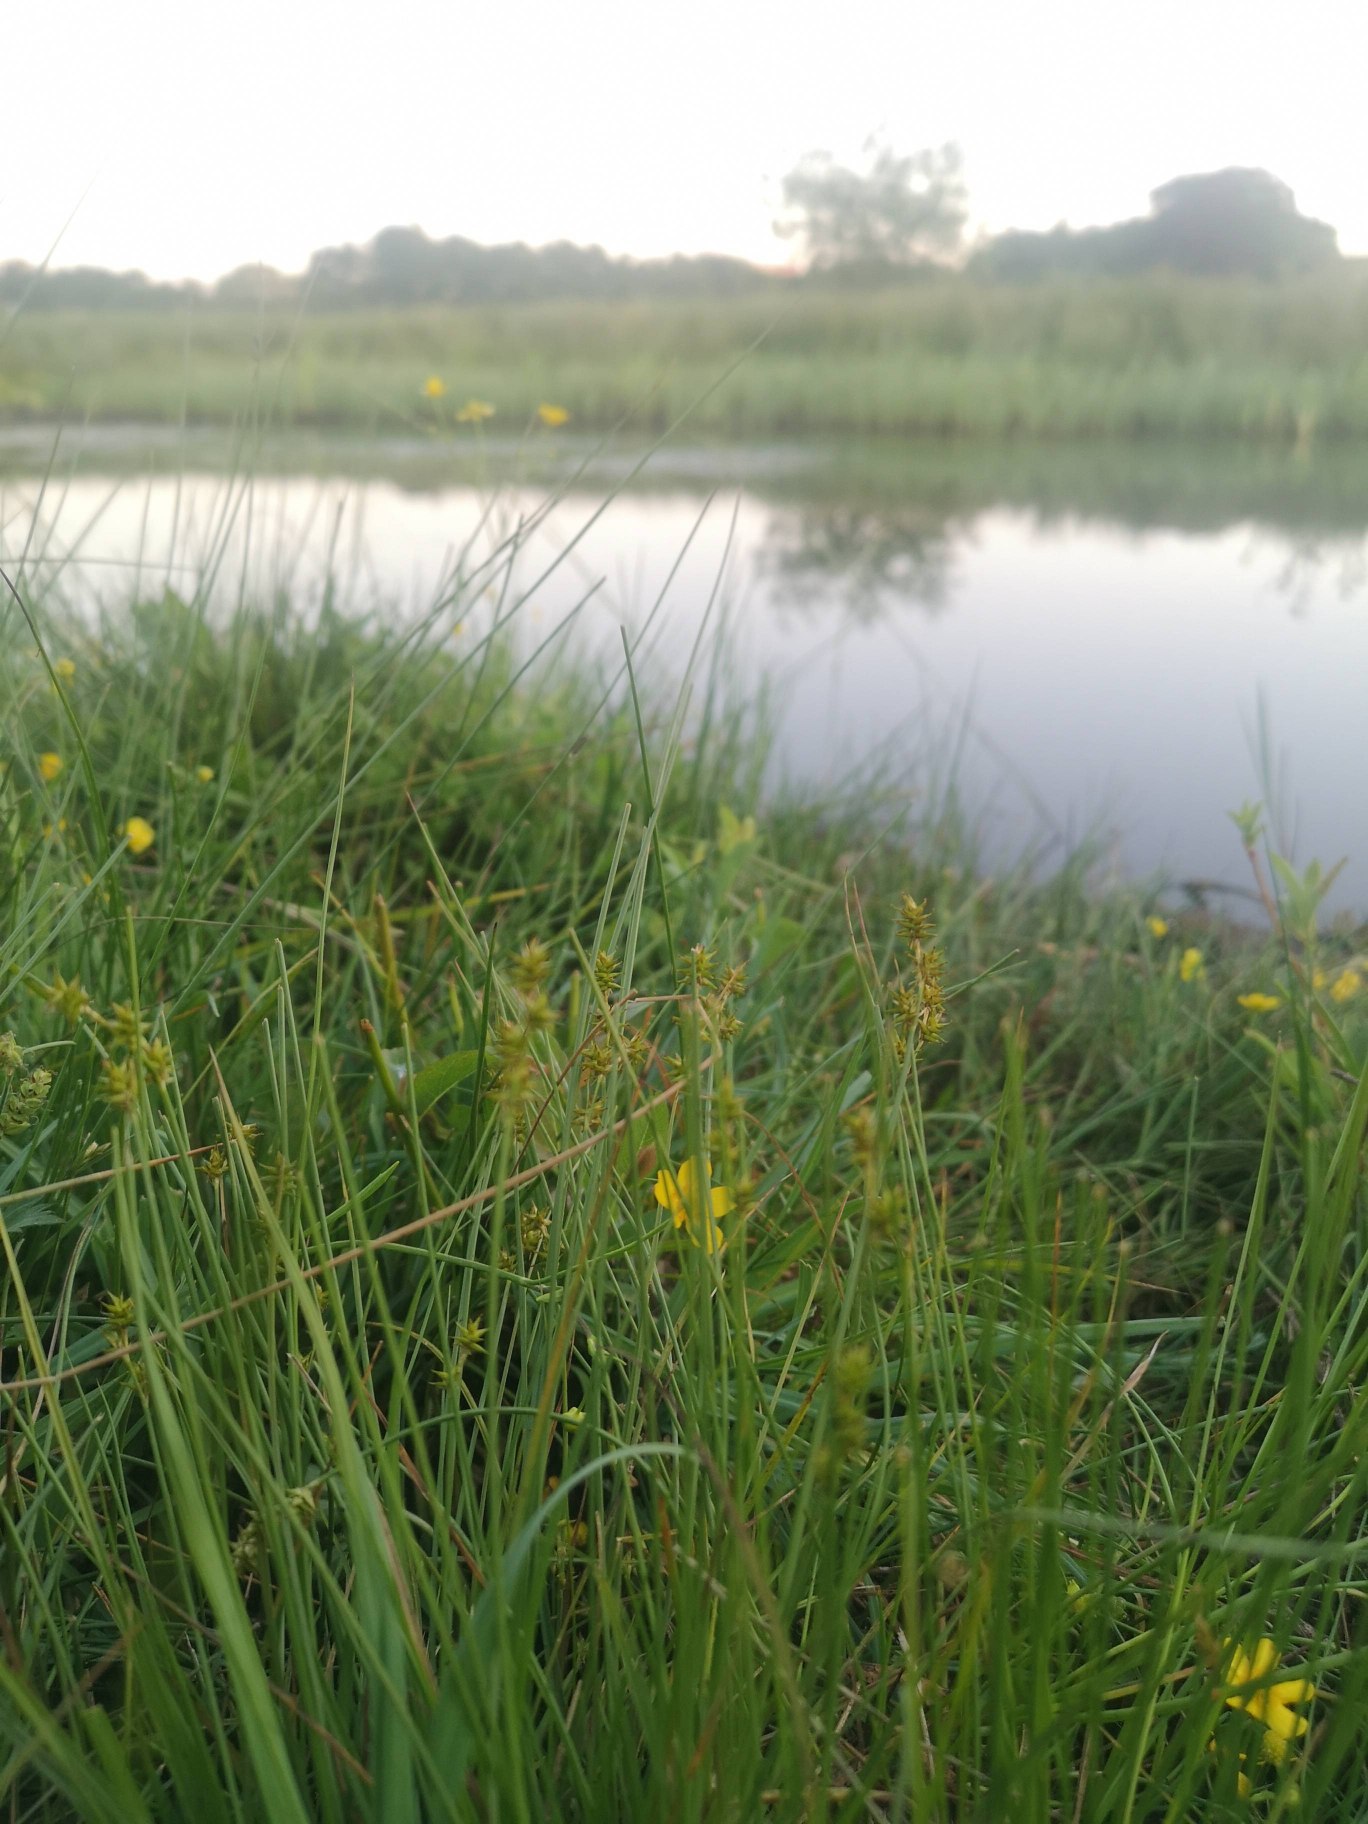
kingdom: Plantae
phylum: Tracheophyta
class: Liliopsida
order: Poales
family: Cyperaceae
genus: Carex
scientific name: Carex echinata
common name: Stjerne-star
